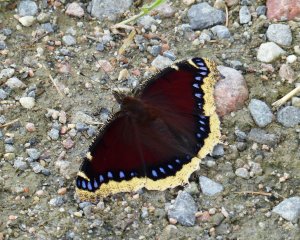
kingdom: Animalia
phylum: Arthropoda
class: Insecta
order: Lepidoptera
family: Nymphalidae
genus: Nymphalis
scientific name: Nymphalis antiopa
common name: Mourning Cloak
